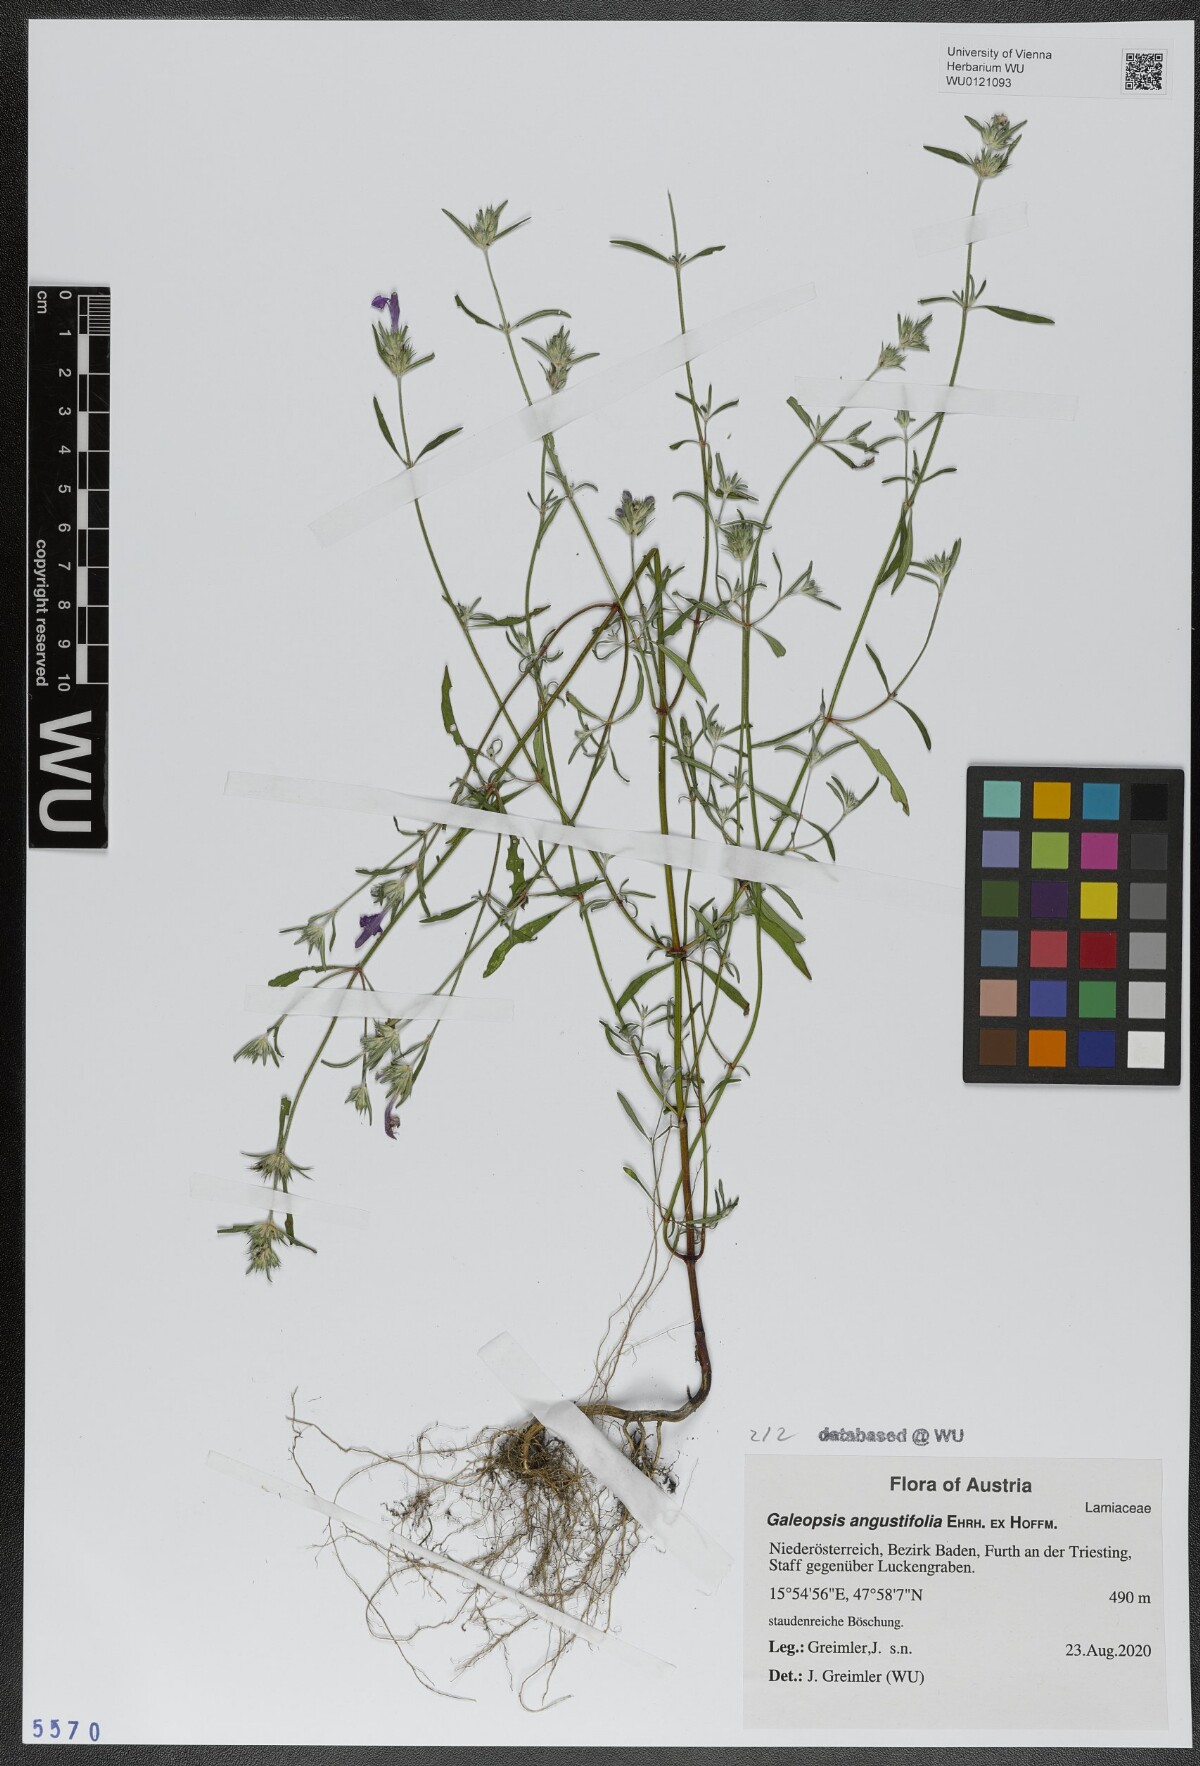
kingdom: Plantae
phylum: Tracheophyta
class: Magnoliopsida
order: Lamiales
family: Lamiaceae
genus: Galeopsis
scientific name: Galeopsis angustifolia
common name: Red hemp-nettle
